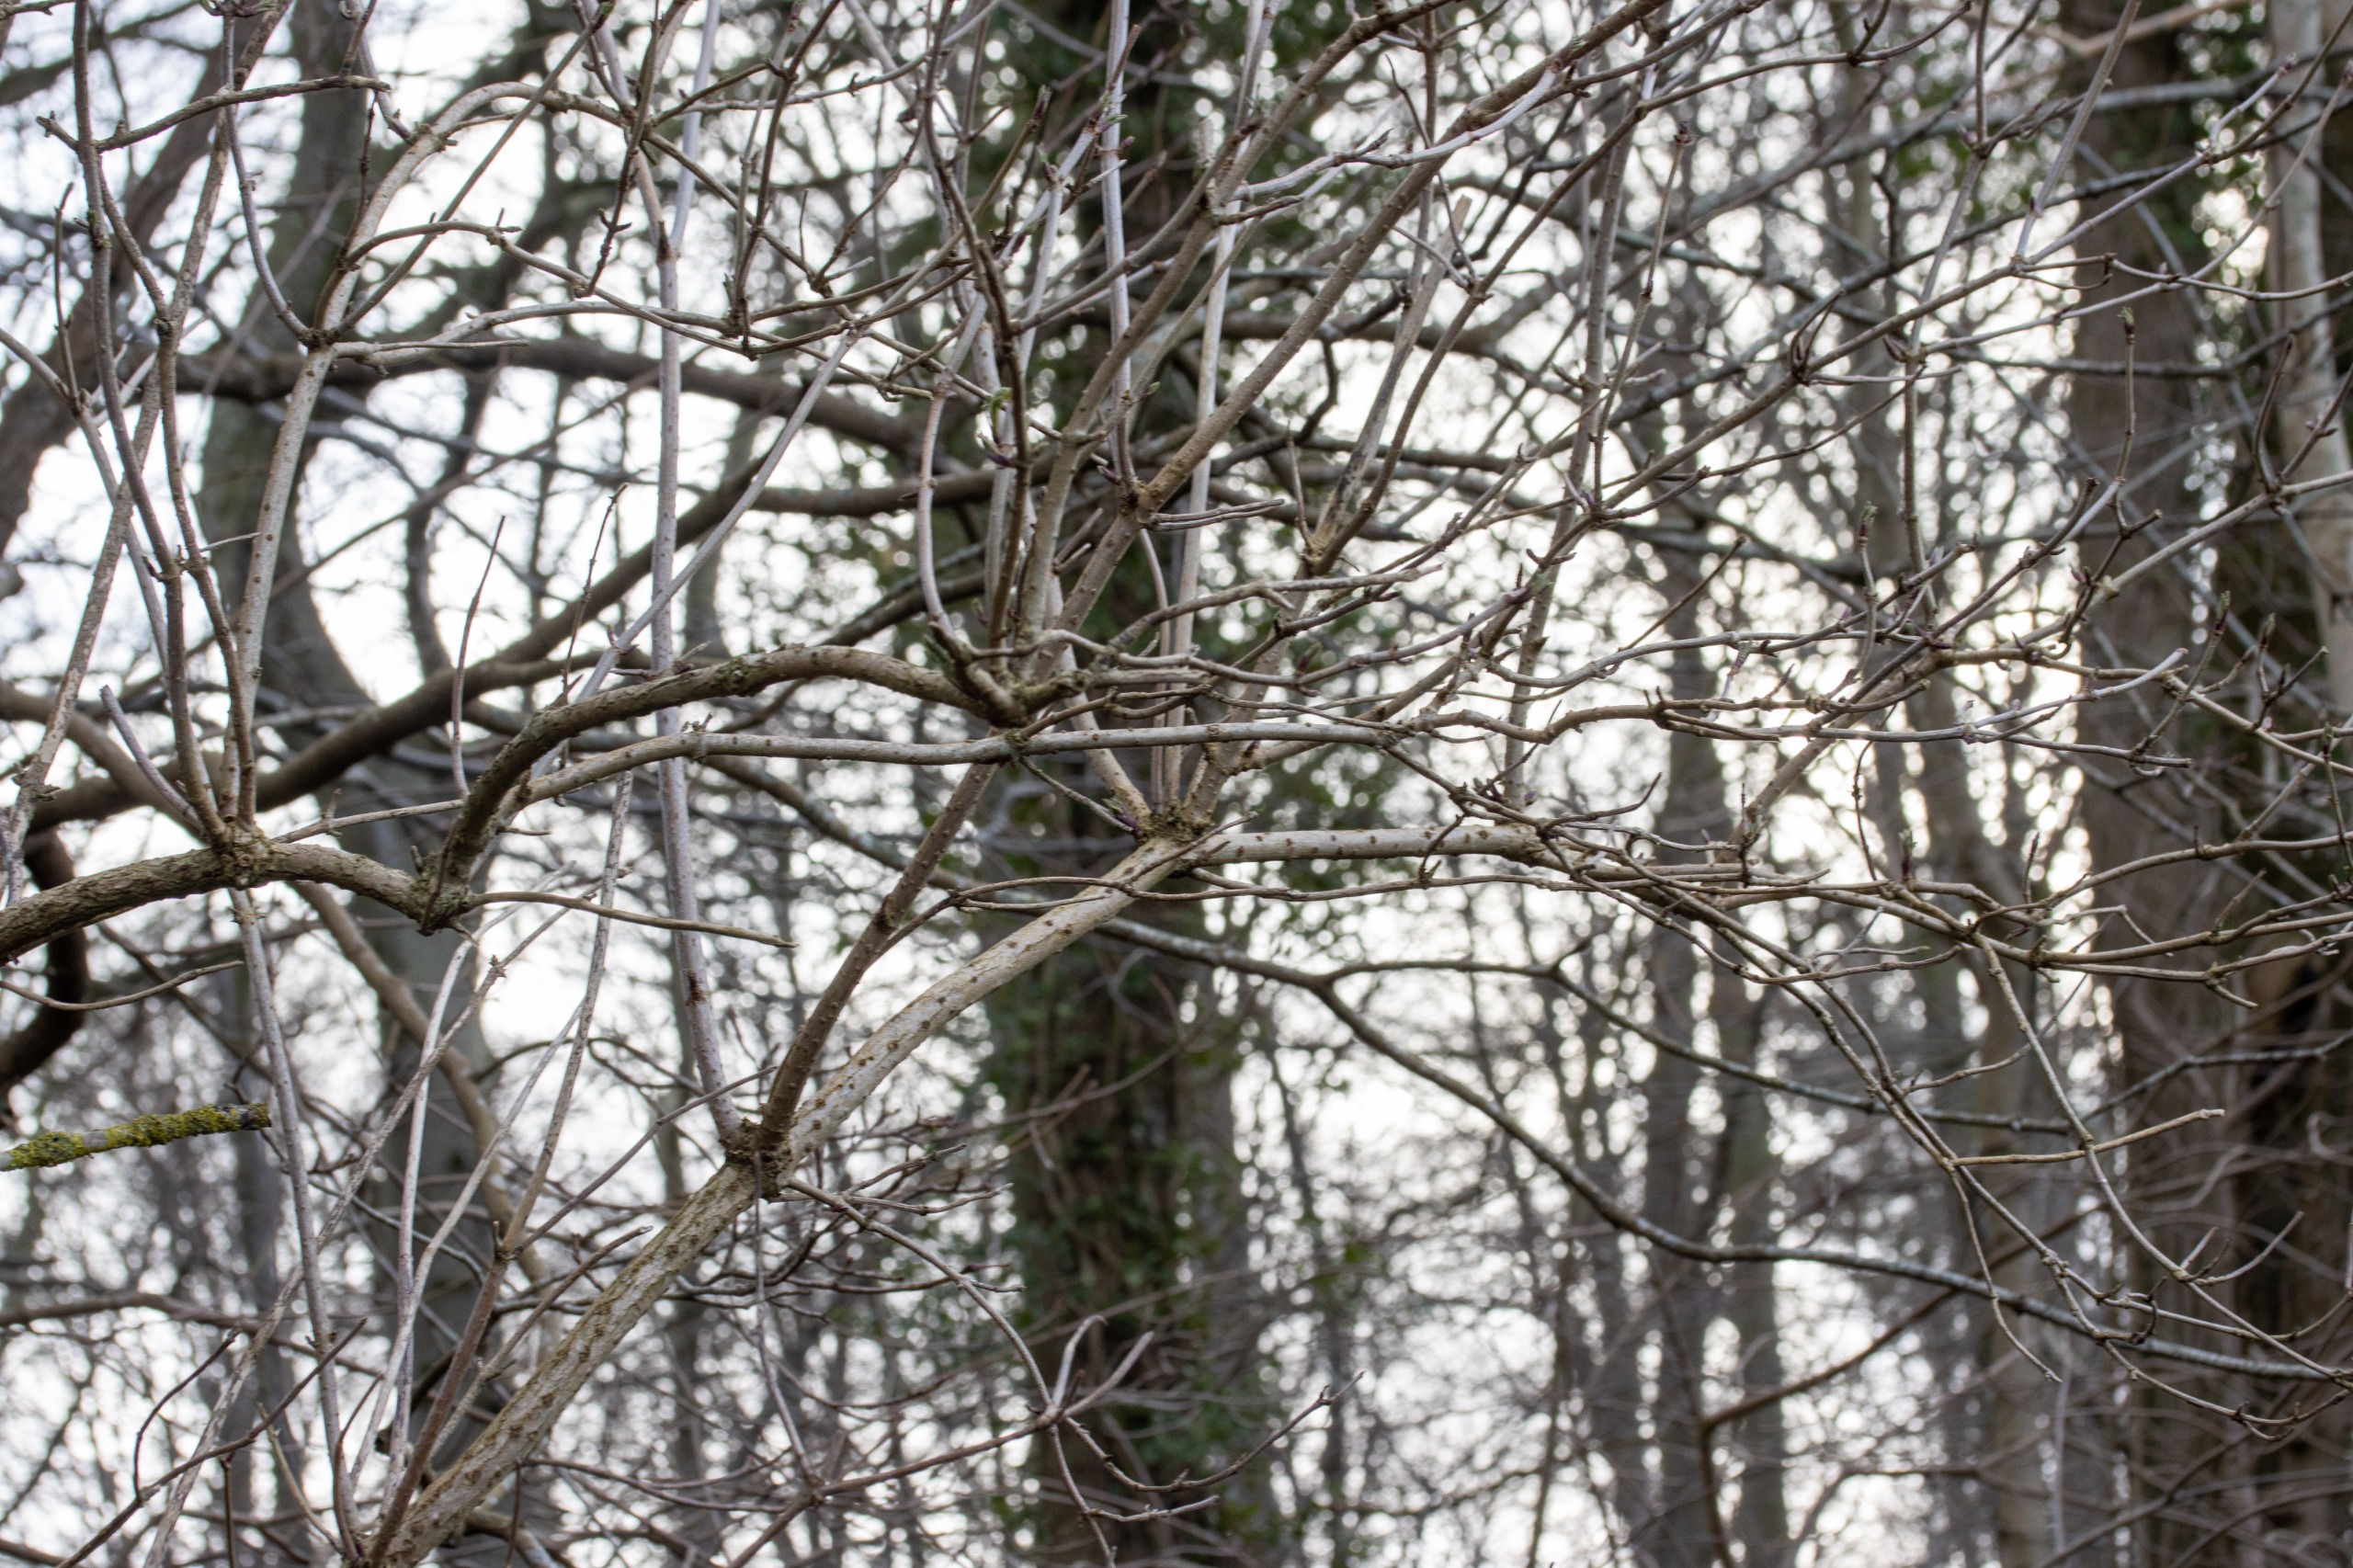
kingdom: Plantae
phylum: Tracheophyta
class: Magnoliopsida
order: Dipsacales
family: Viburnaceae
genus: Sambucus
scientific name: Sambucus nigra
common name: Almindelig hyld
